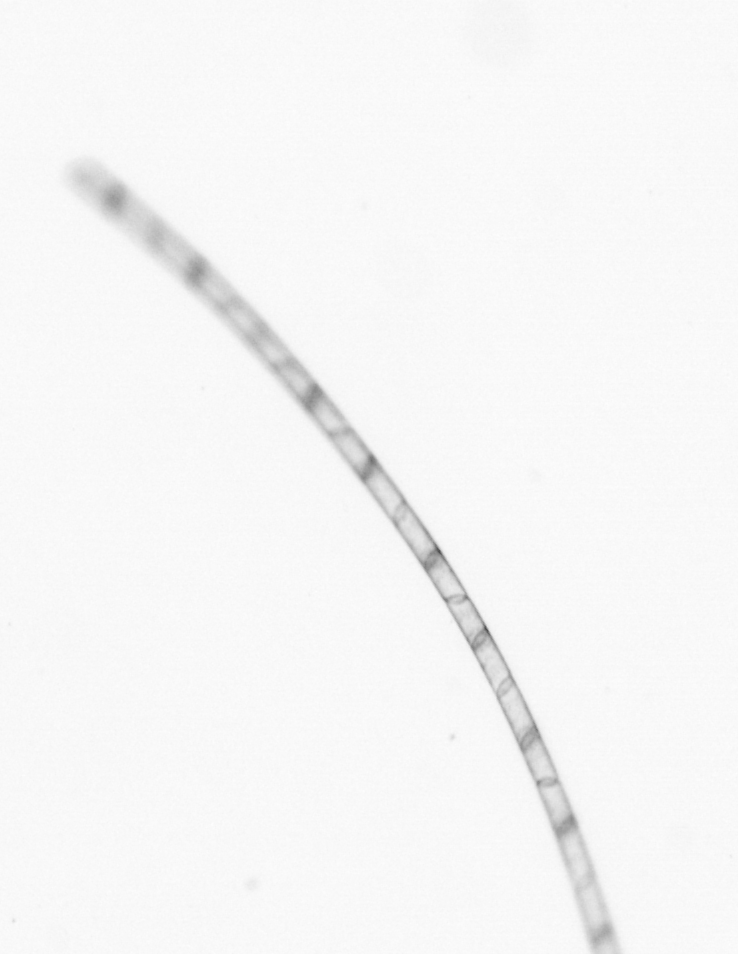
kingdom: Chromista
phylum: Ochrophyta
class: Bacillariophyceae
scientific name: Bacillariophyceae
